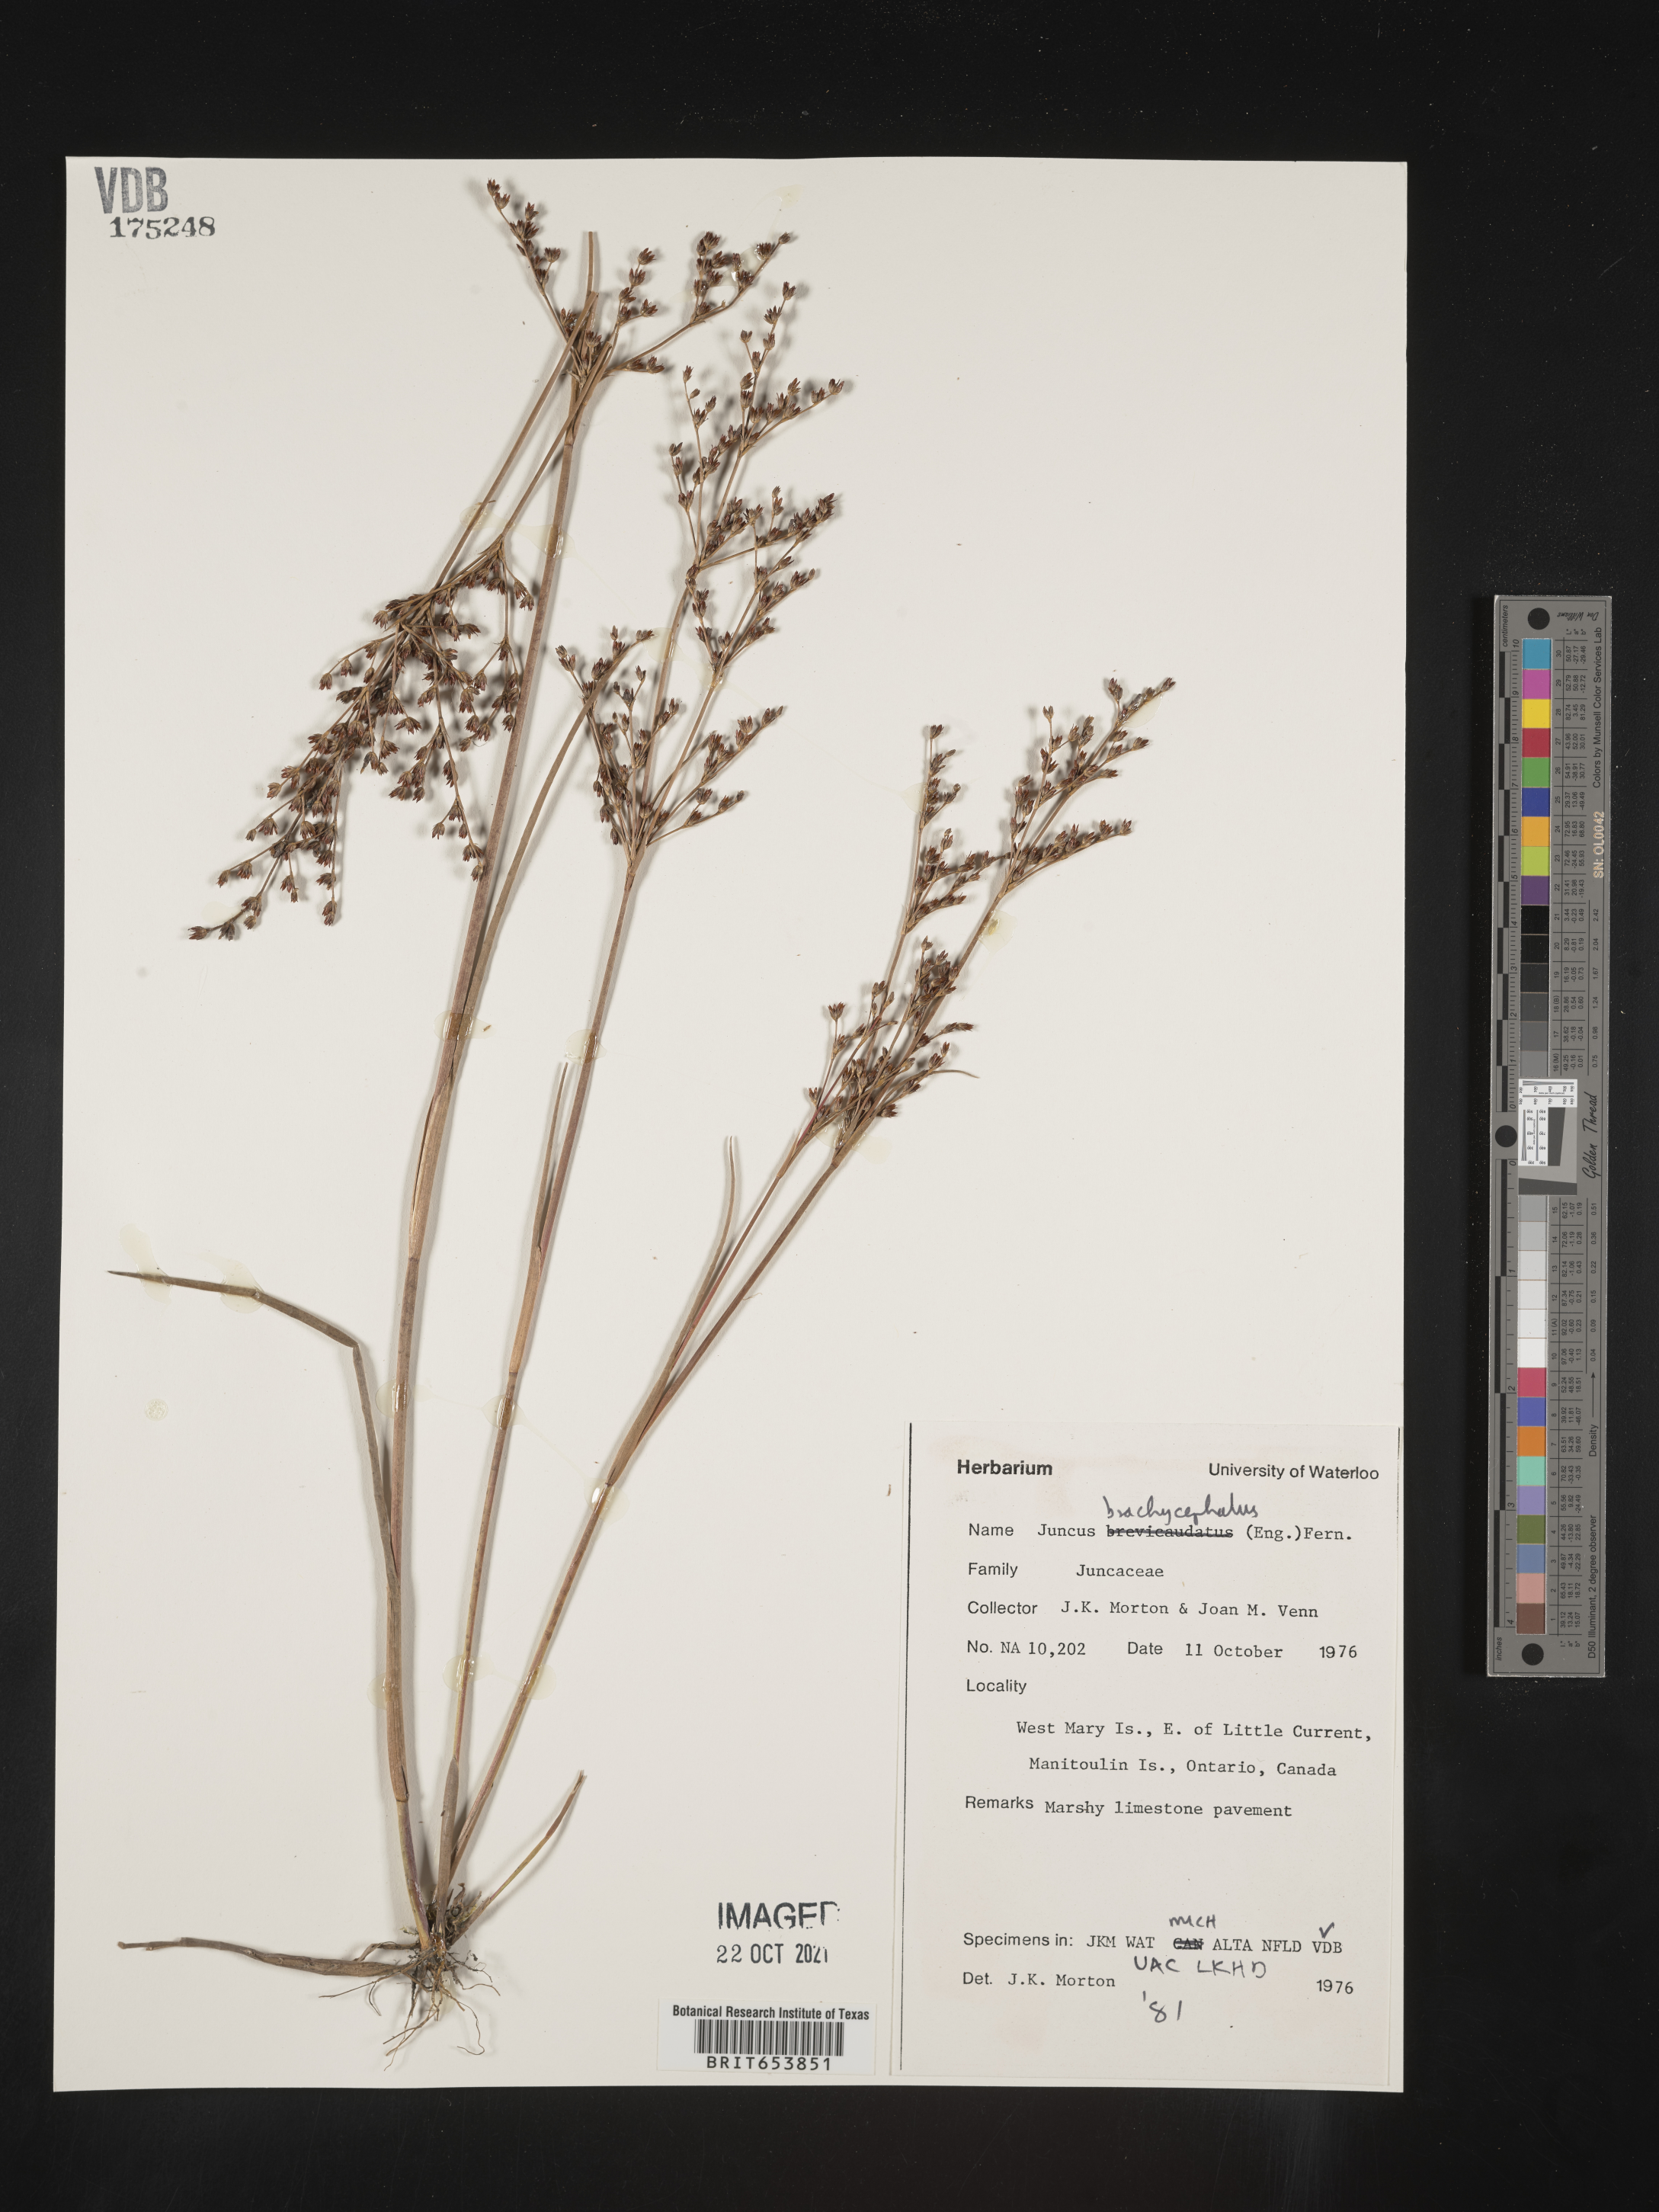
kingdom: Plantae
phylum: Tracheophyta
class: Liliopsida
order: Poales
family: Juncaceae
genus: Juncus
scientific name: Juncus
